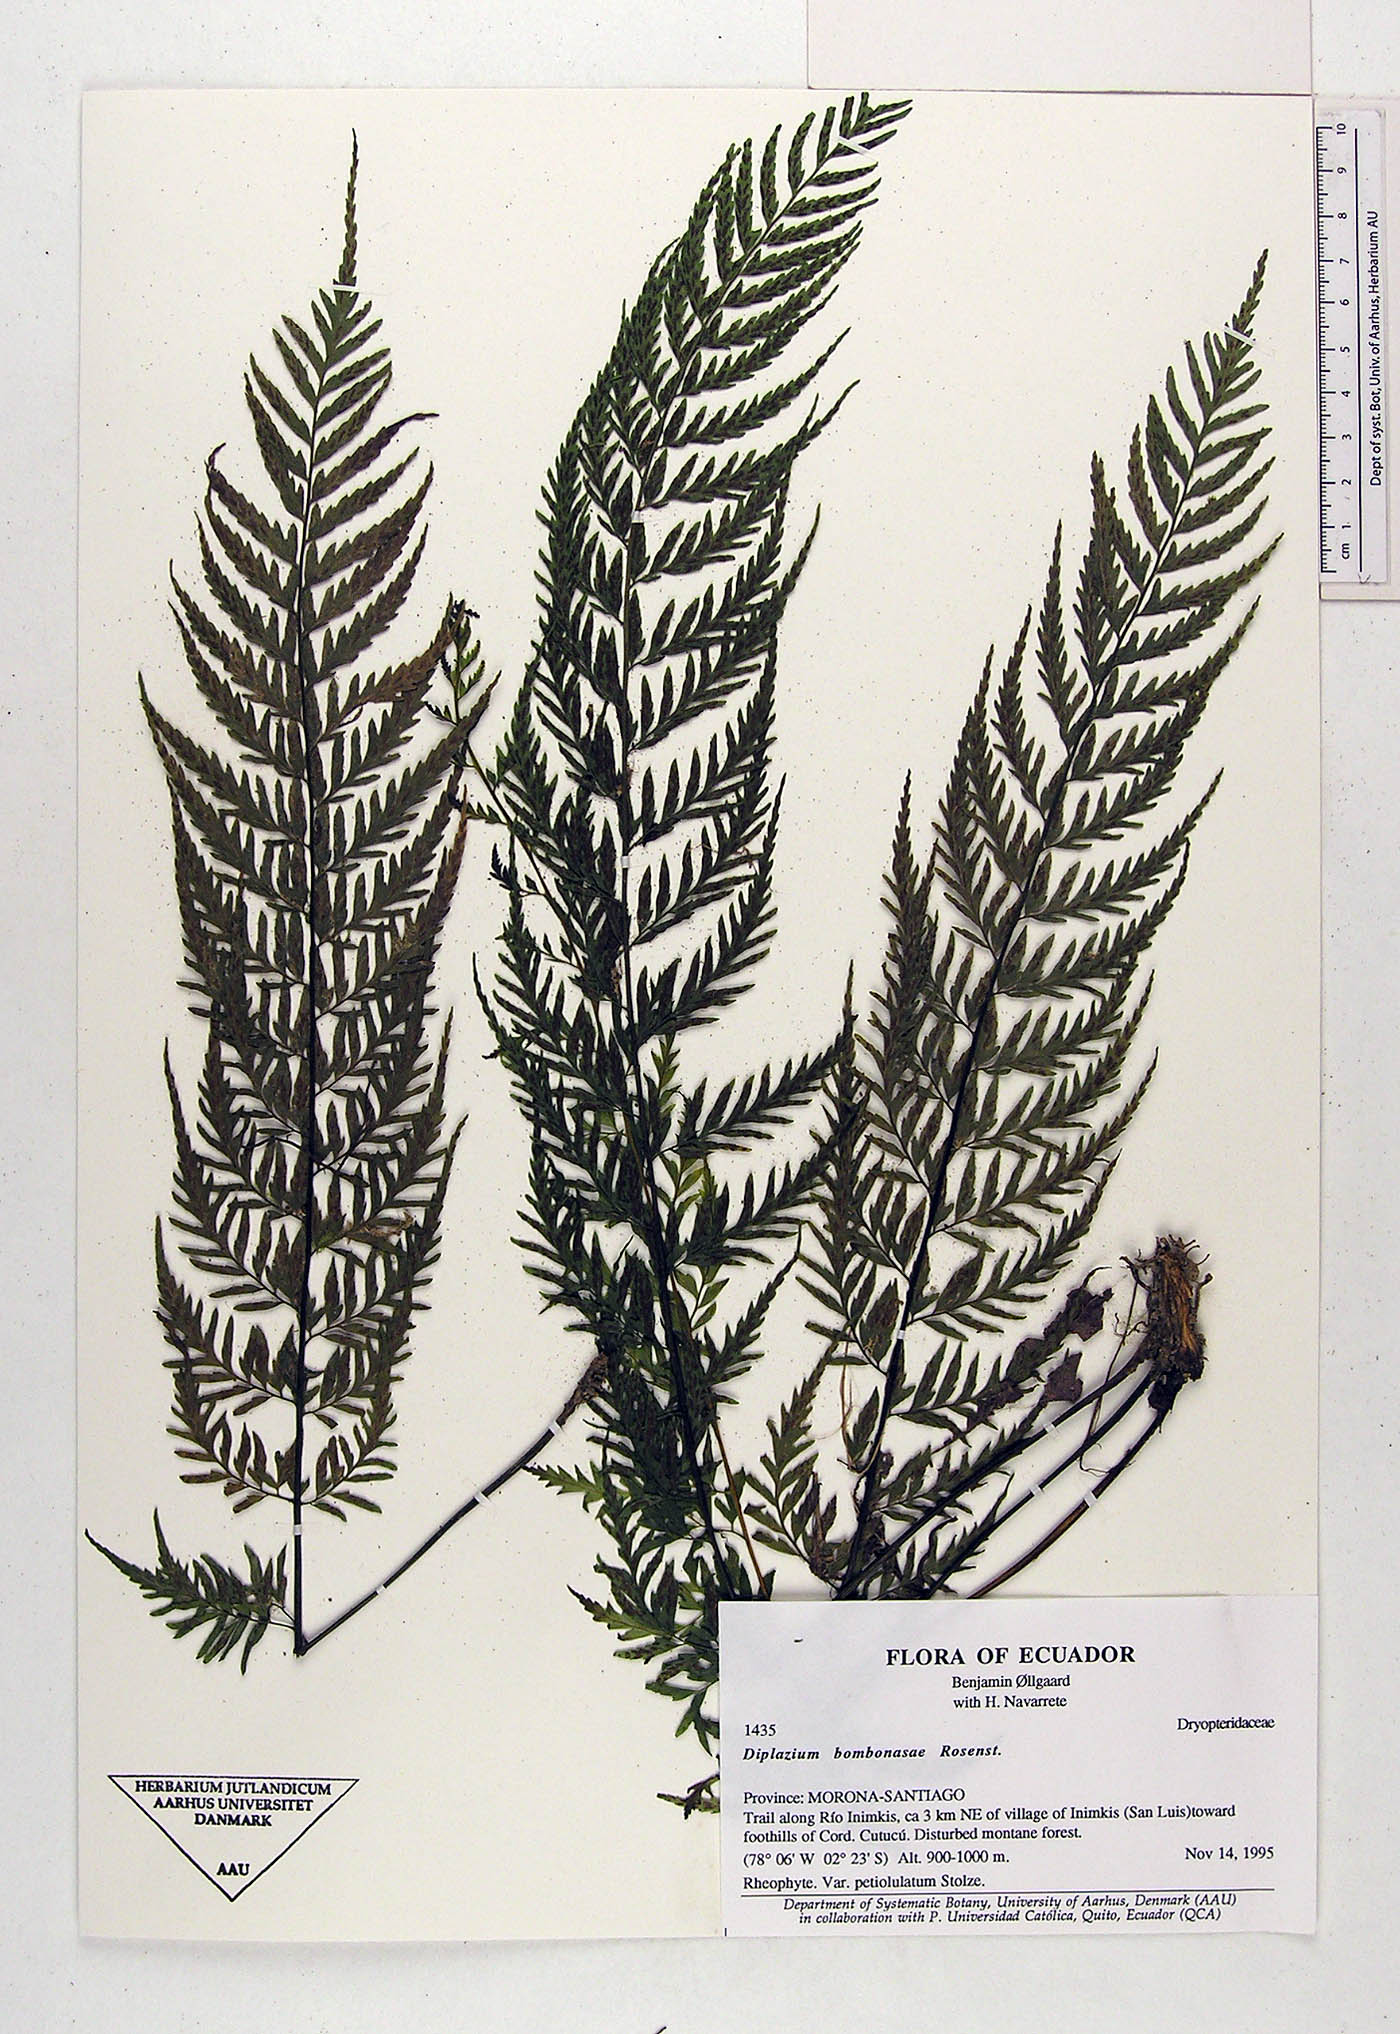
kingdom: Plantae
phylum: Tracheophyta
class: Polypodiopsida
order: Polypodiales
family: Athyriaceae
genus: Diplazium
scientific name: Diplazium bombonasae
